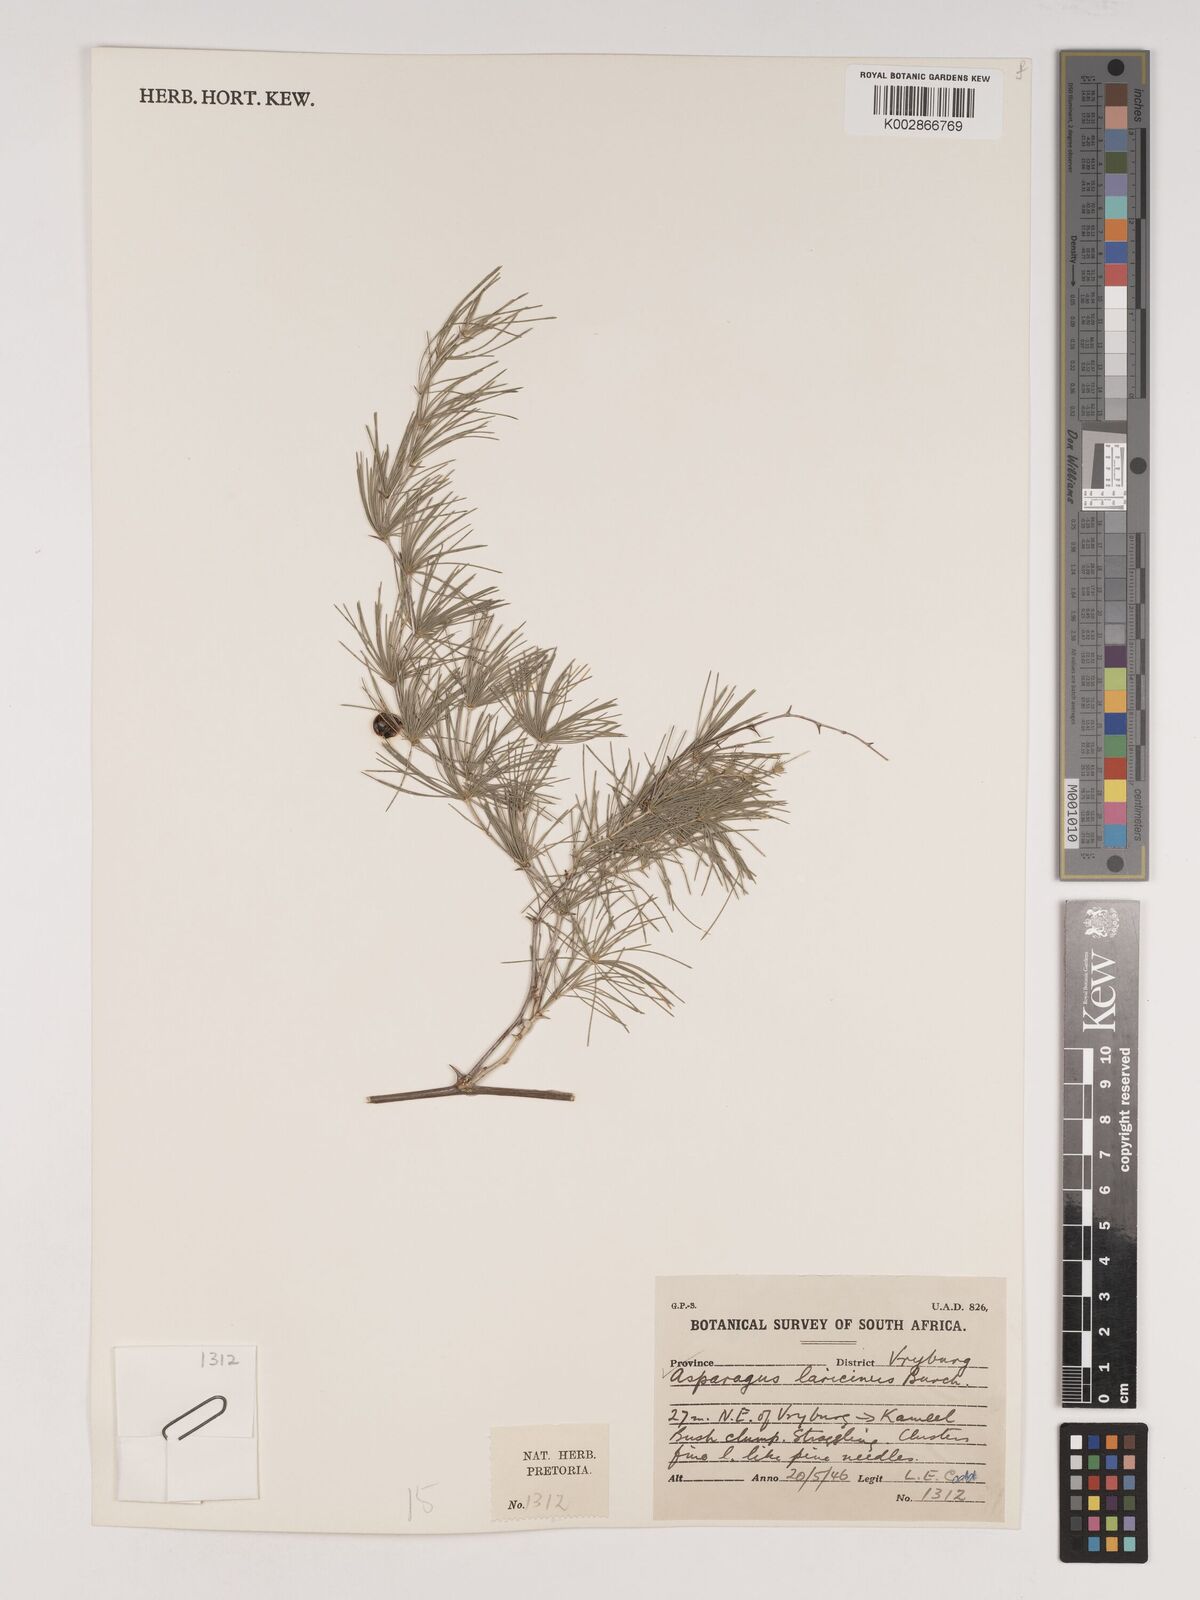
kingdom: Plantae
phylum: Tracheophyta
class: Liliopsida
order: Asparagales
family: Asparagaceae
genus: Asparagus
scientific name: Asparagus laricinus
